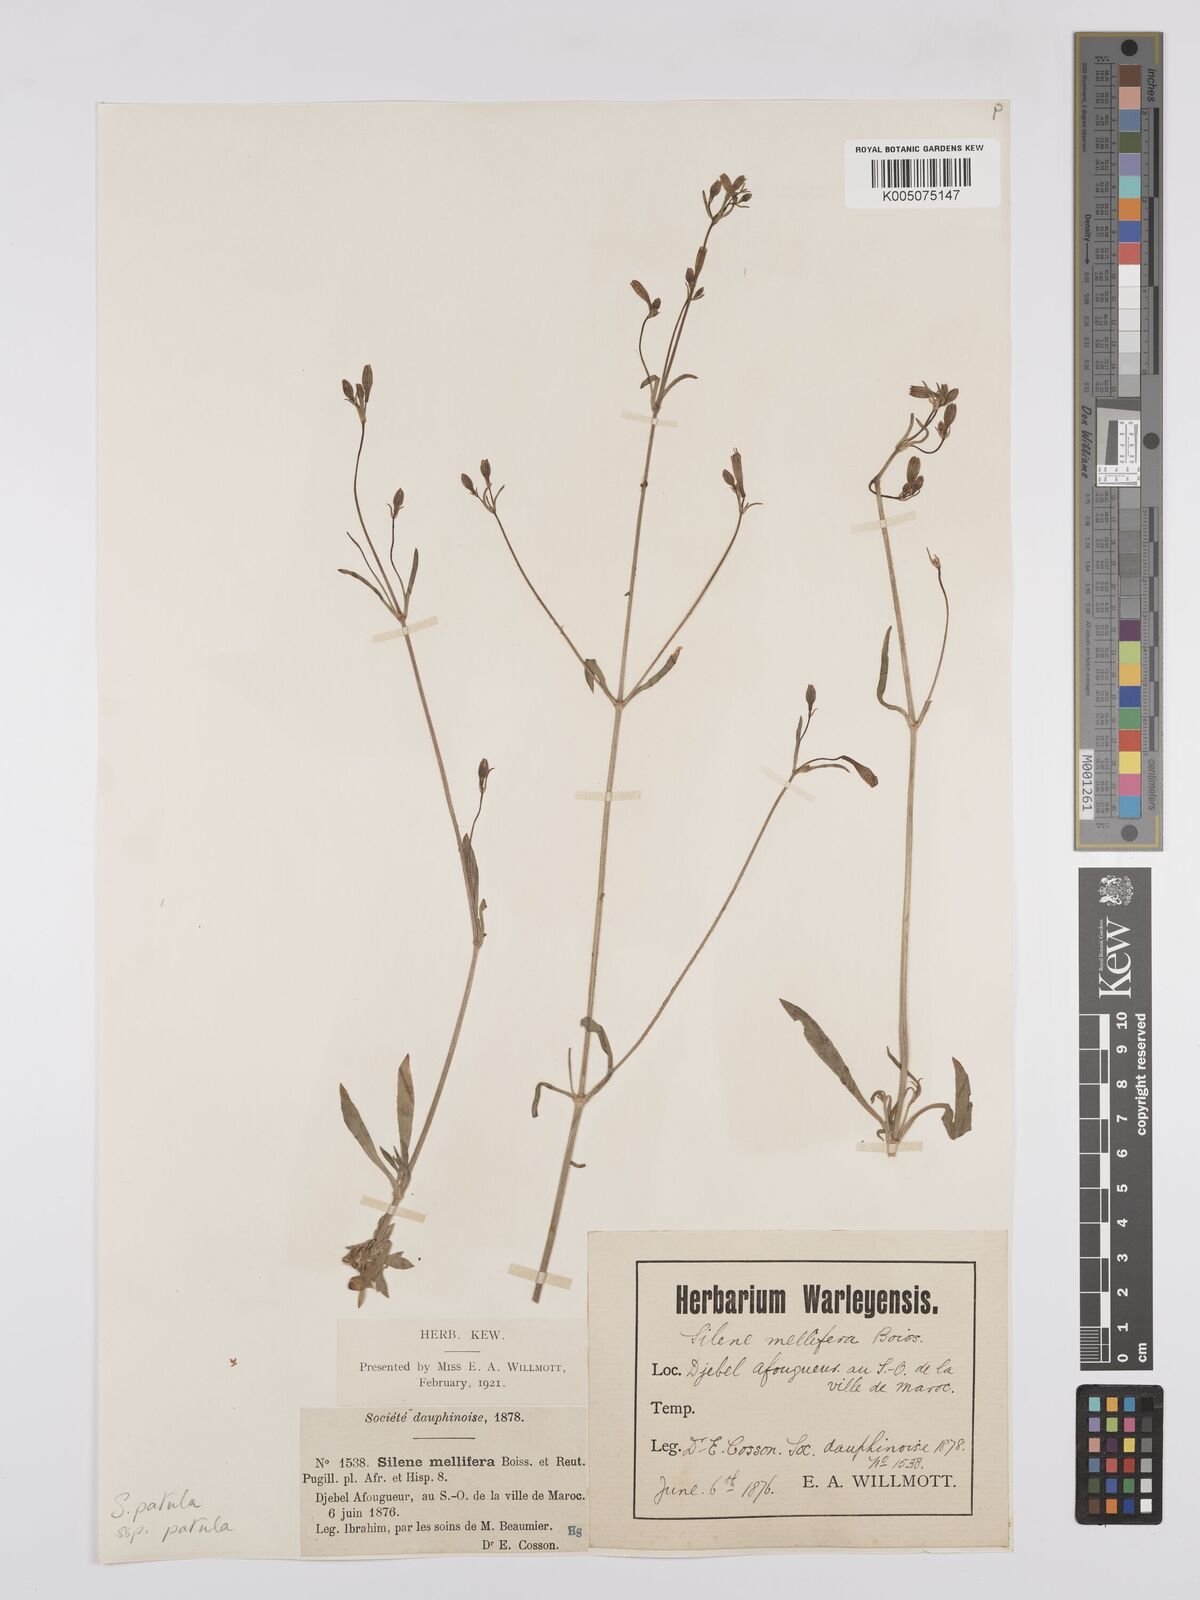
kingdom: Plantae
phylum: Tracheophyta
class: Magnoliopsida
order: Caryophyllales
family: Caryophyllaceae
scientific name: Caryophyllaceae
